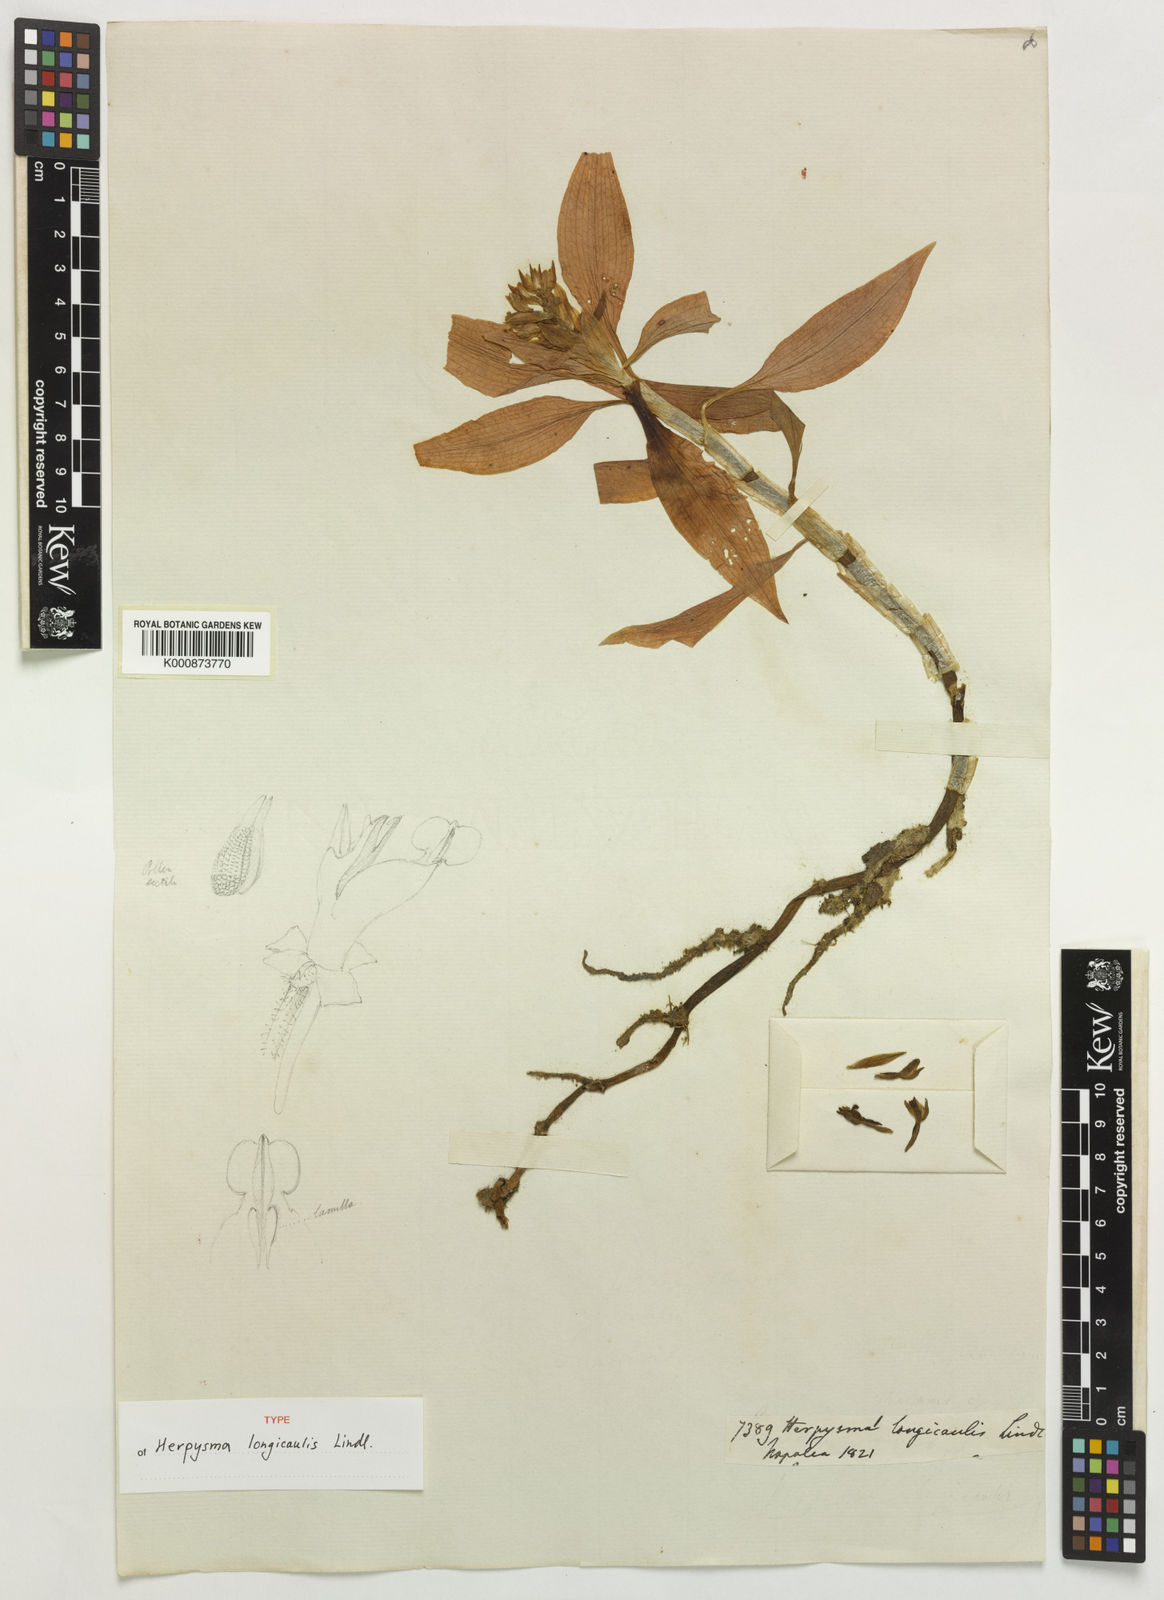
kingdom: Plantae
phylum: Tracheophyta
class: Liliopsida
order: Asparagales
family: Orchidaceae
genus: Herpysma
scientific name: Herpysma longicaulis
